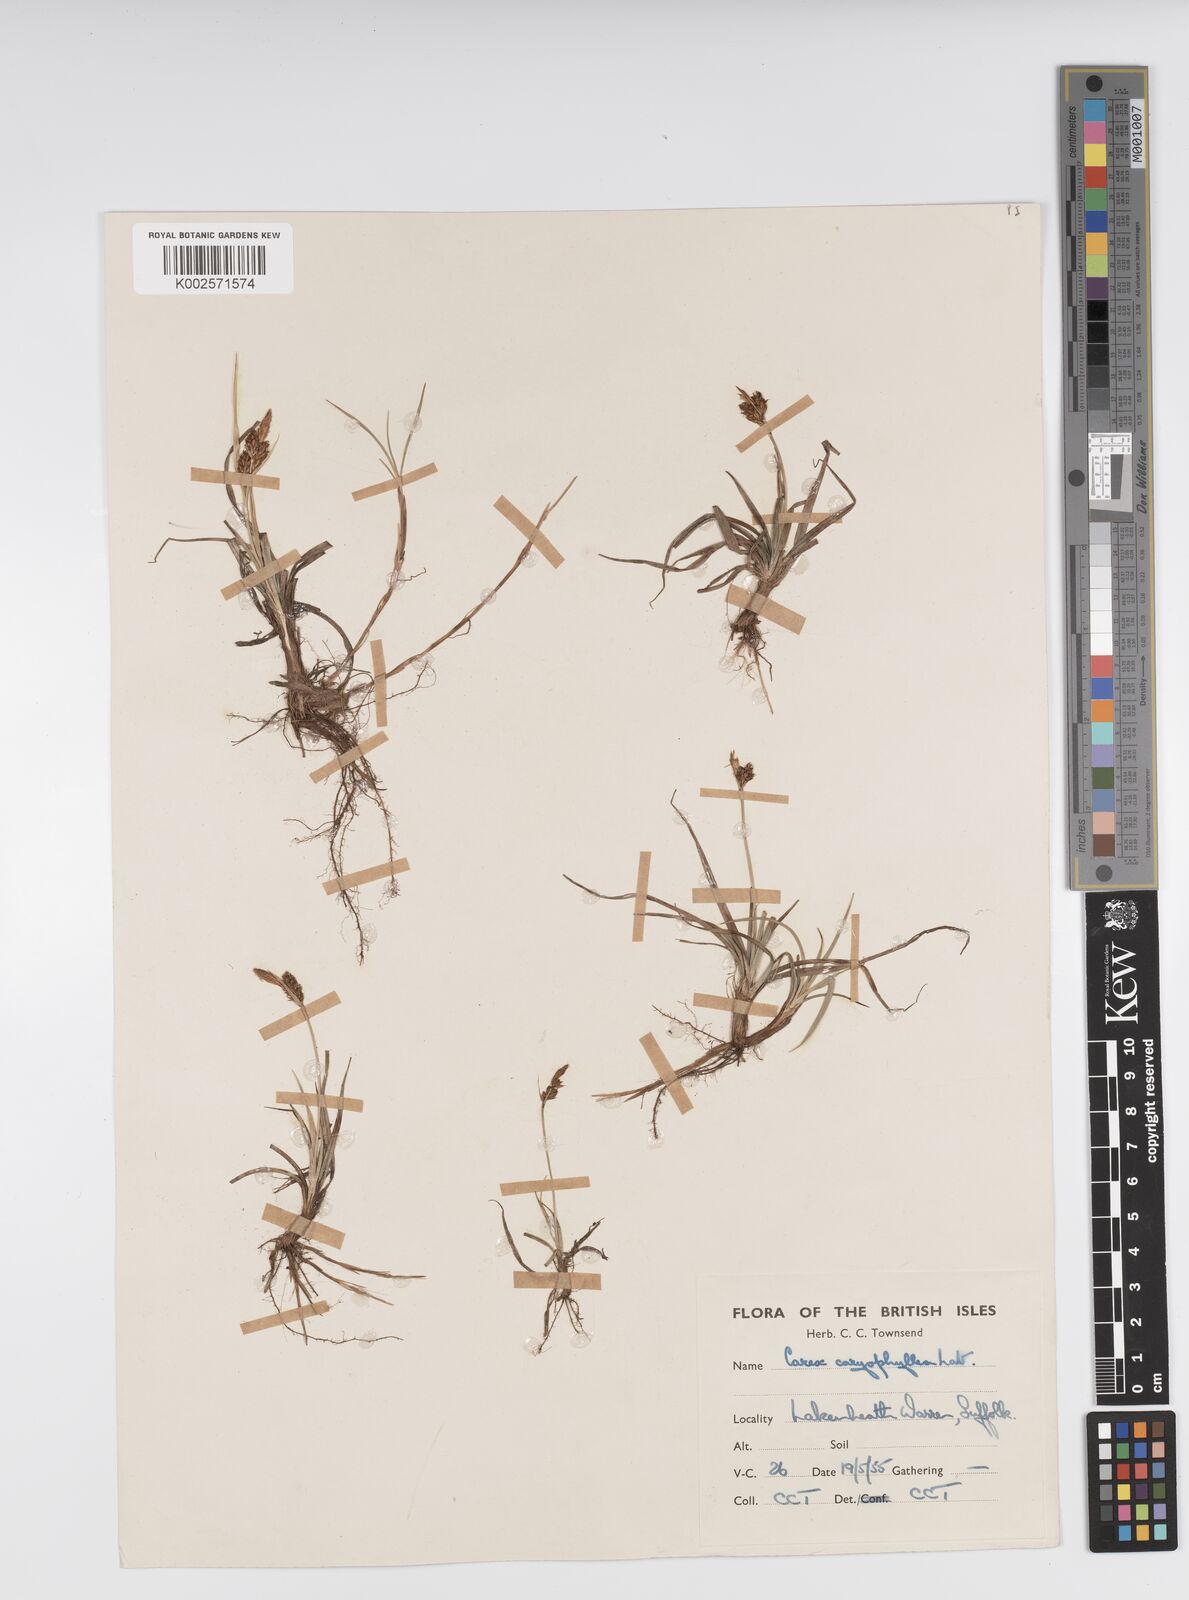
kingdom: Plantae
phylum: Tracheophyta
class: Liliopsida
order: Poales
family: Cyperaceae
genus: Carex
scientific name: Carex caryophyllea
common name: Spring sedge
